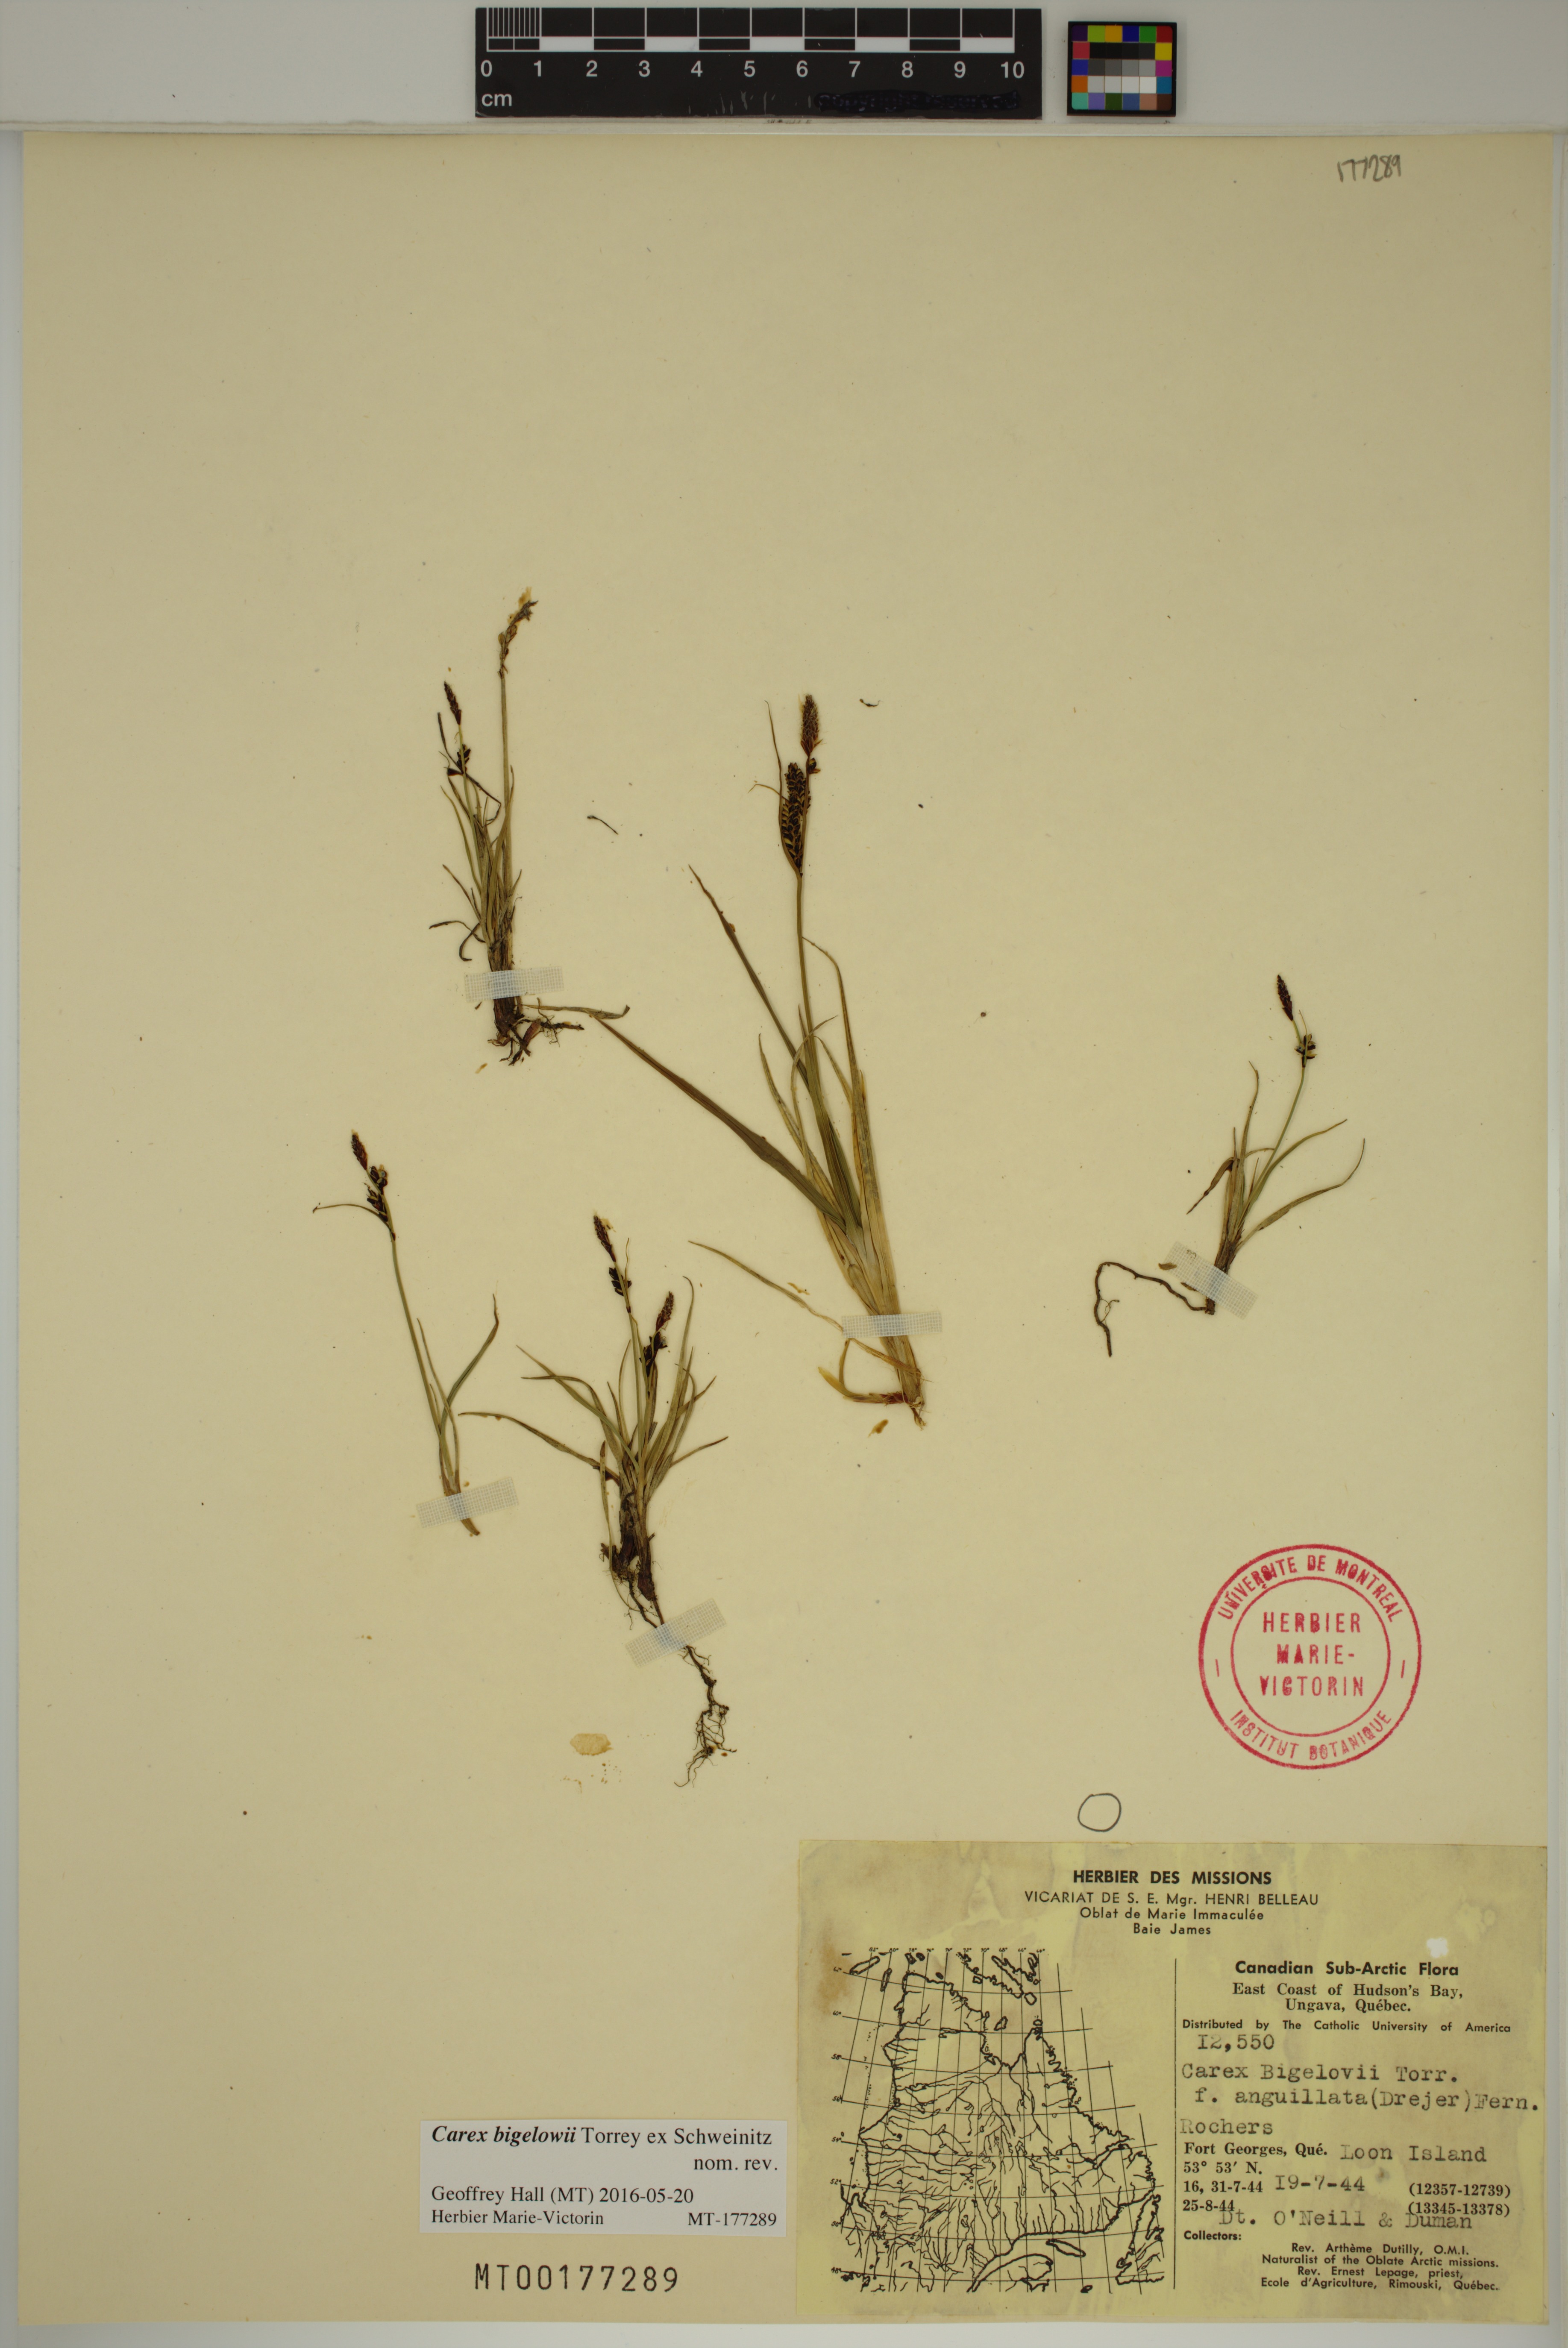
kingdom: Plantae
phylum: Tracheophyta
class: Liliopsida
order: Poales
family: Cyperaceae
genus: Carex
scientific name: Carex bigelowii
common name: Stiff sedge
